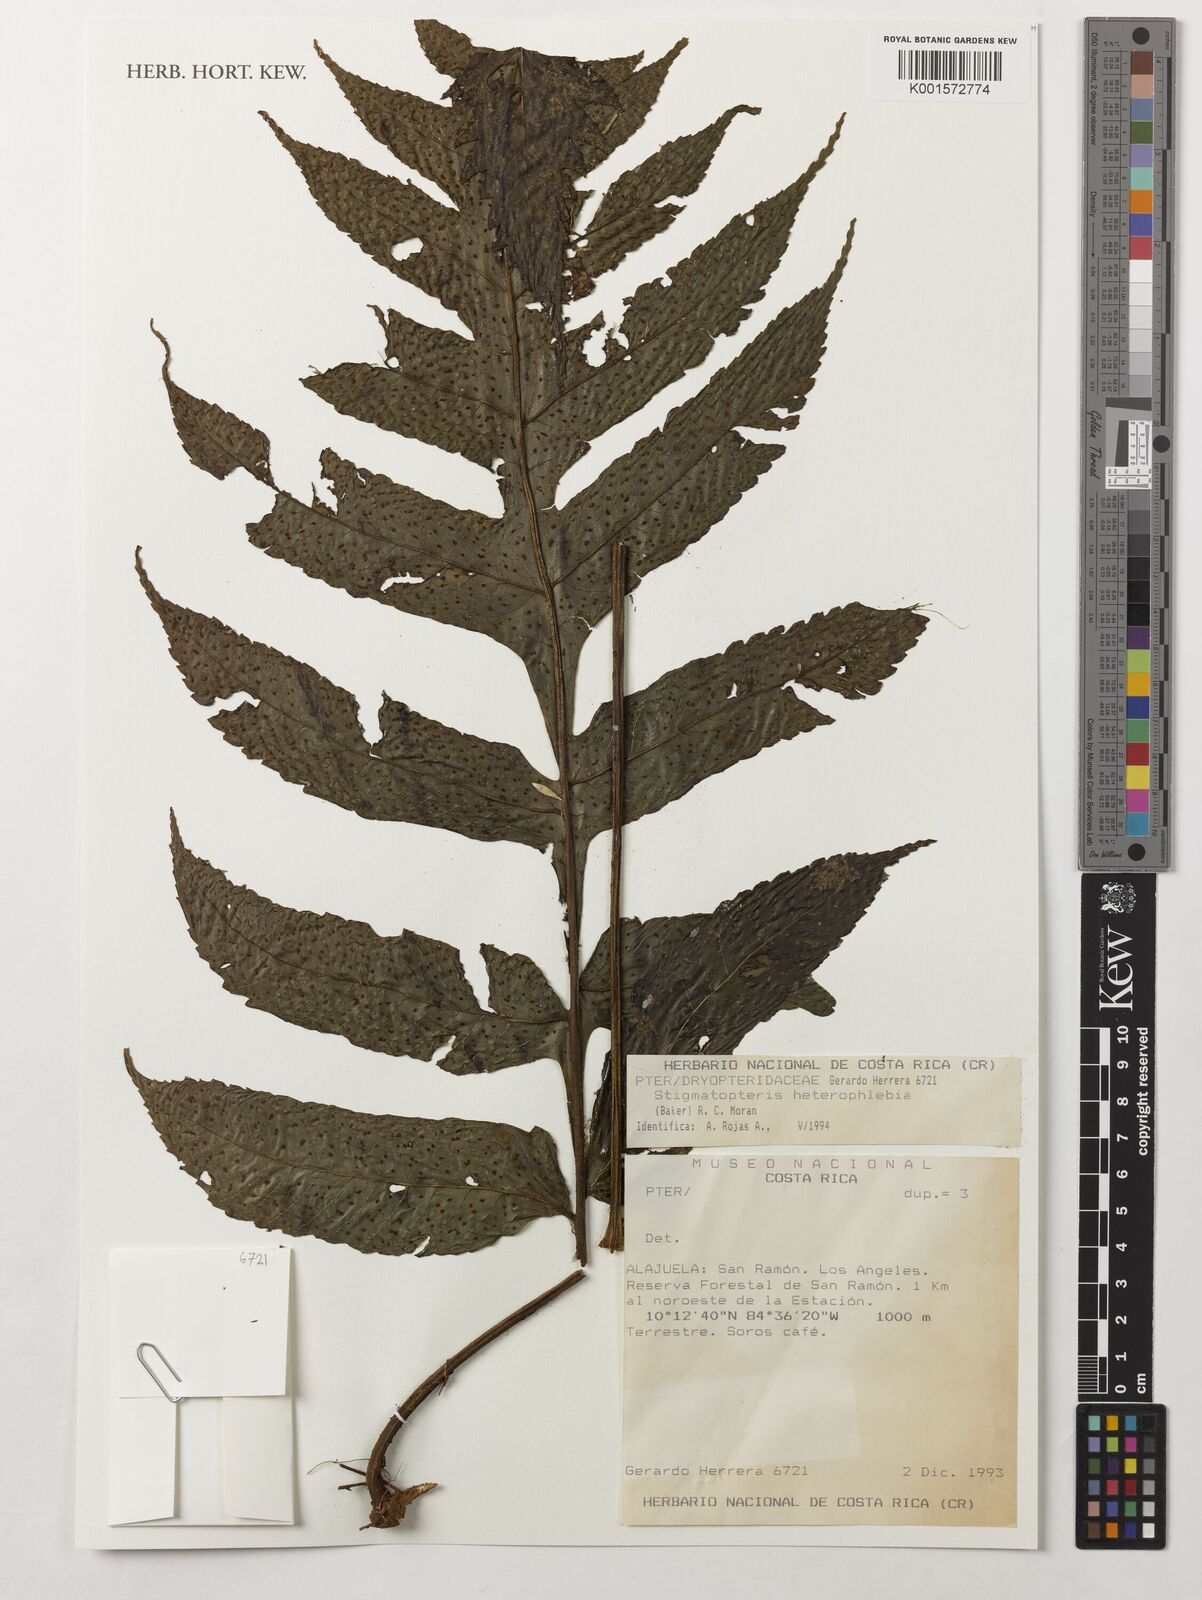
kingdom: Plantae
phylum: Tracheophyta
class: Polypodiopsida
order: Polypodiales
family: Dryopteridaceae
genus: Stigmatopteris
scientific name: Stigmatopteris heterophlebia
